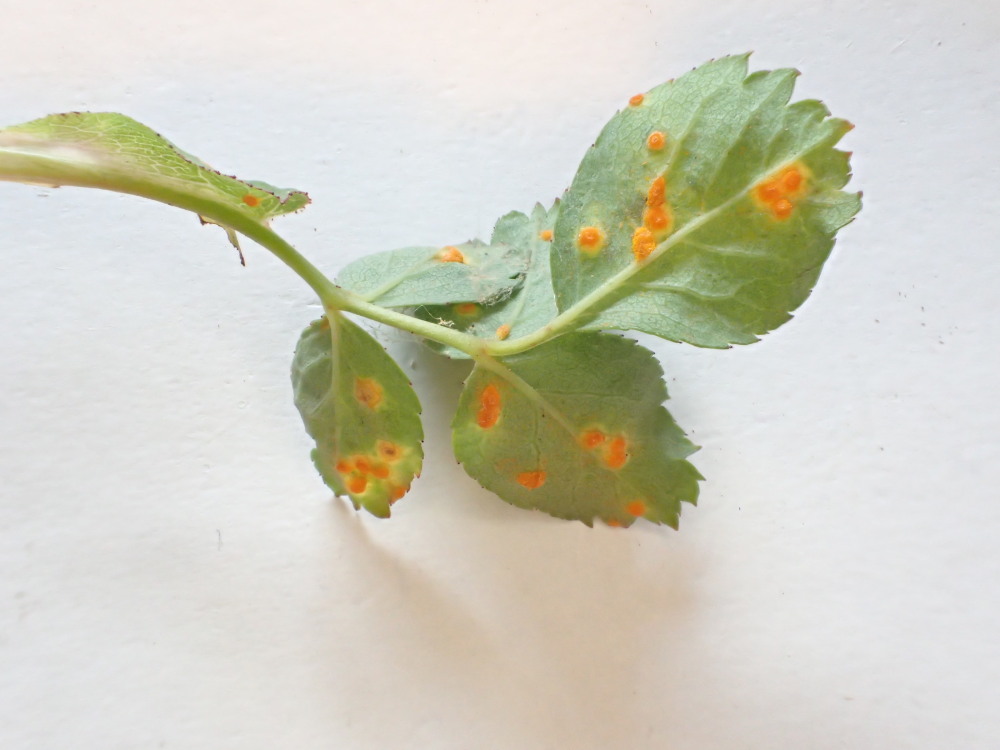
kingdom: Fungi
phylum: Basidiomycota
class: Pucciniomycetes
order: Pucciniales
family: Phragmidiaceae
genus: Phragmidium
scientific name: Phragmidium tuberculatum
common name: Rose rust
